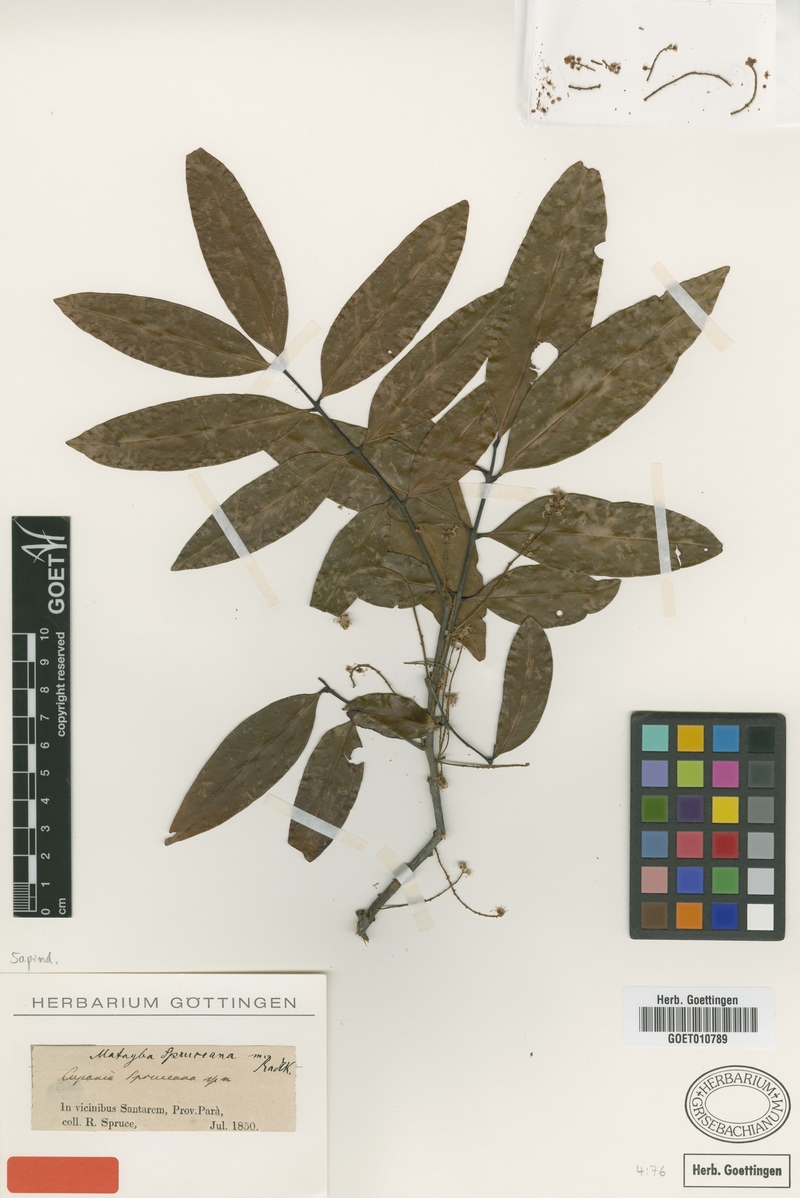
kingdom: Plantae
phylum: Tracheophyta
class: Magnoliopsida
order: Sapindales
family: Sapindaceae
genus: Matayba
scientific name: Matayba spruceana
